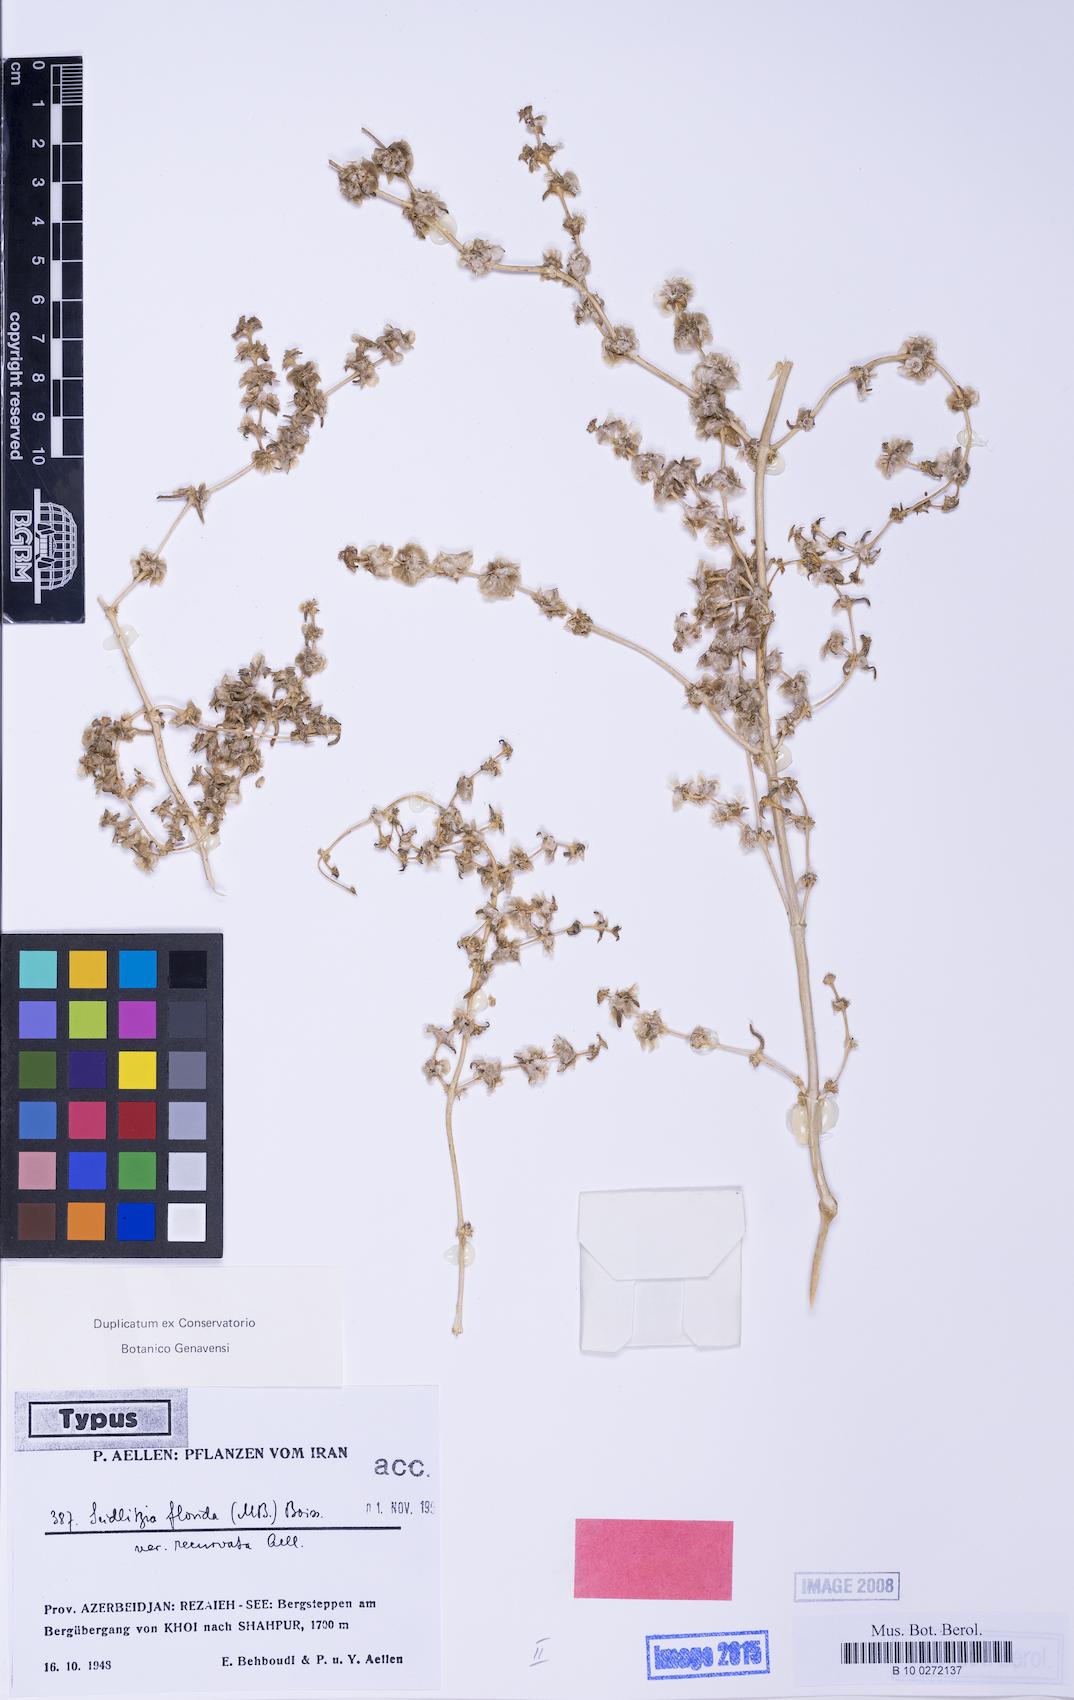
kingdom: Plantae
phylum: Tracheophyta
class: Magnoliopsida
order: Caryophyllales
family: Amaranthaceae
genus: Soda
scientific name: Soda florida
